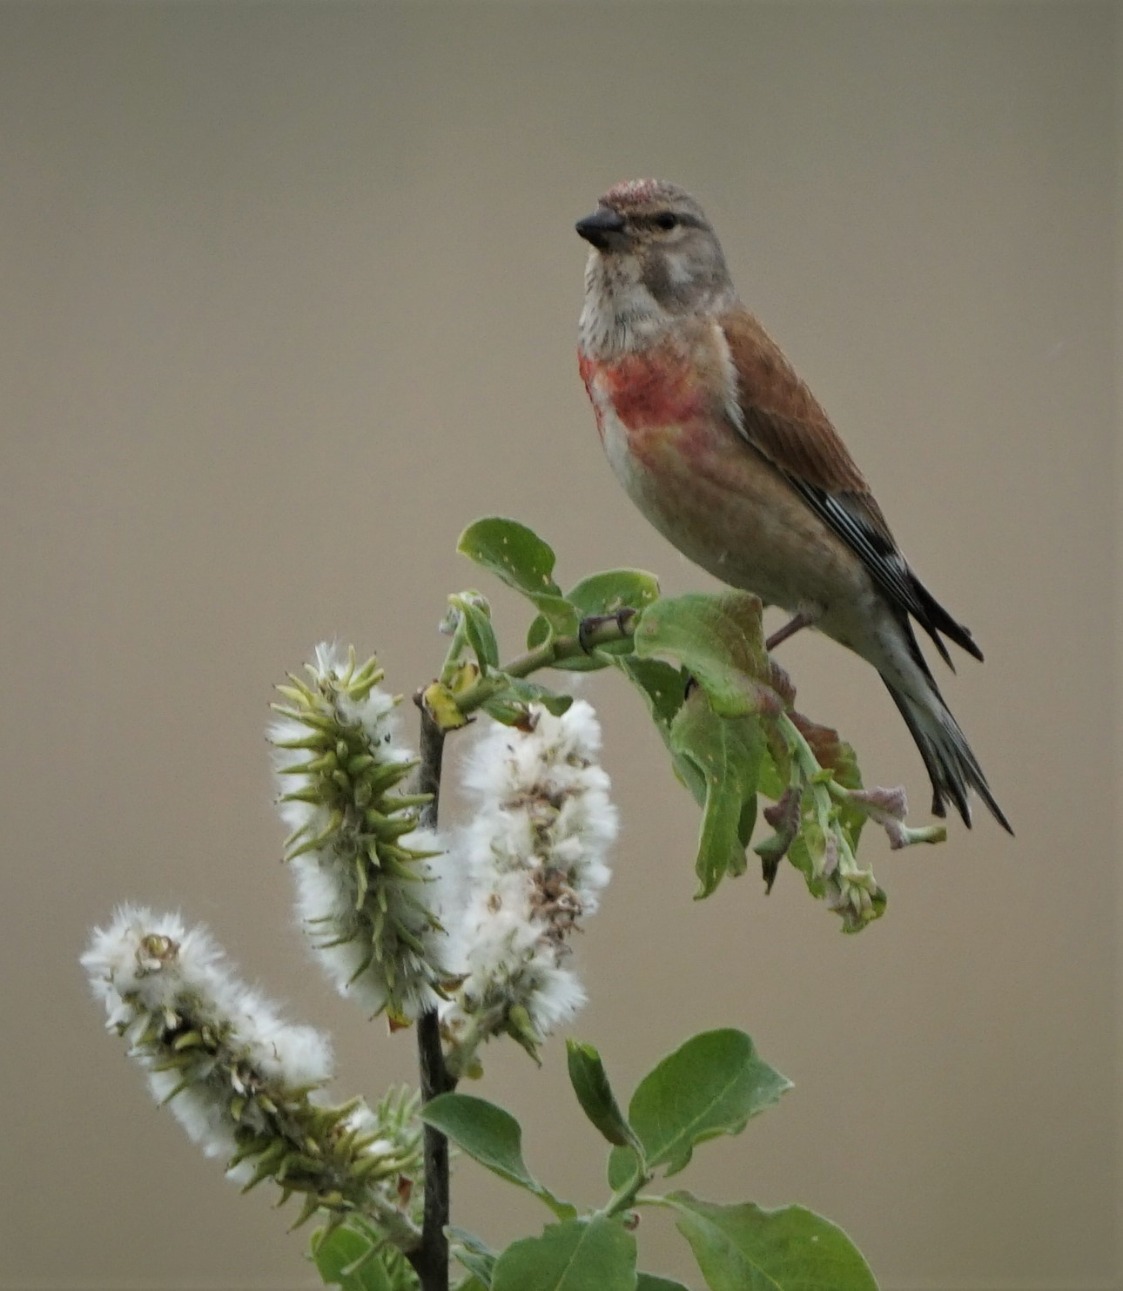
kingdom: Animalia
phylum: Chordata
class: Aves
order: Passeriformes
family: Fringillidae
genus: Linaria
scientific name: Linaria cannabina
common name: Tornirisk
